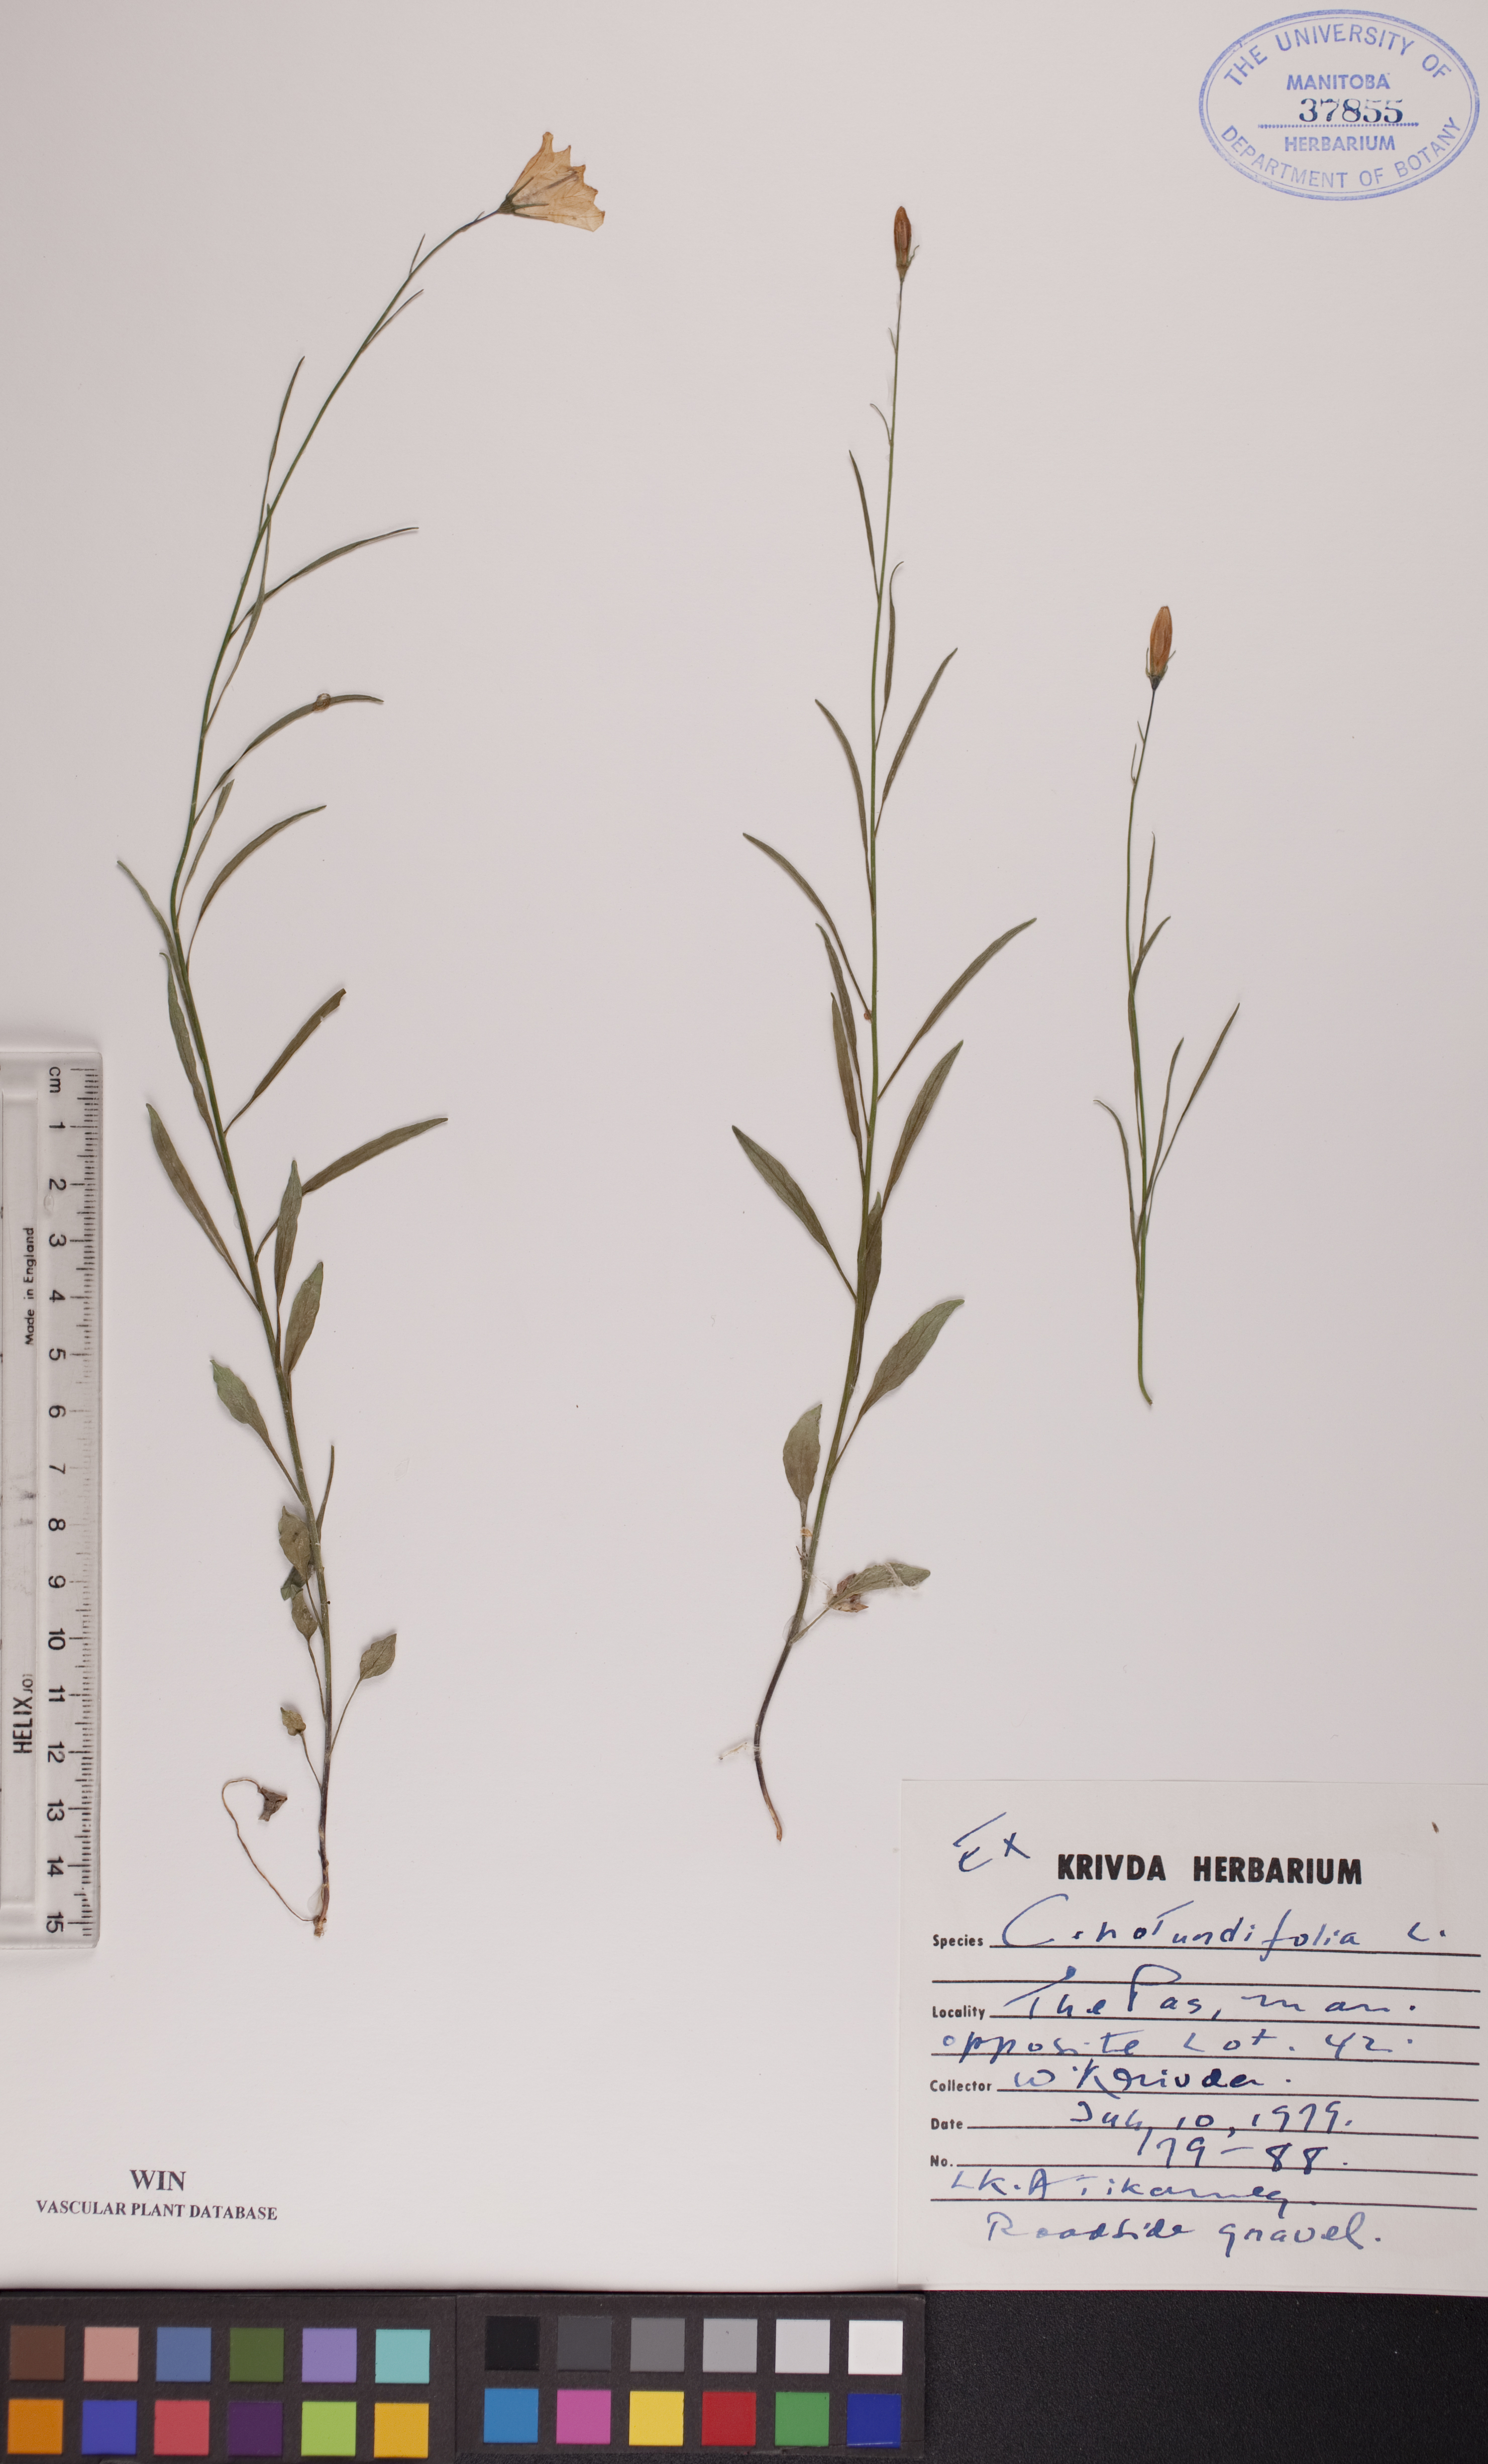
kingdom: Plantae
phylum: Tracheophyta
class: Magnoliopsida
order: Asterales
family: Campanulaceae
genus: Campanula
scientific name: Campanula rotundifolia
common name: Harebell
